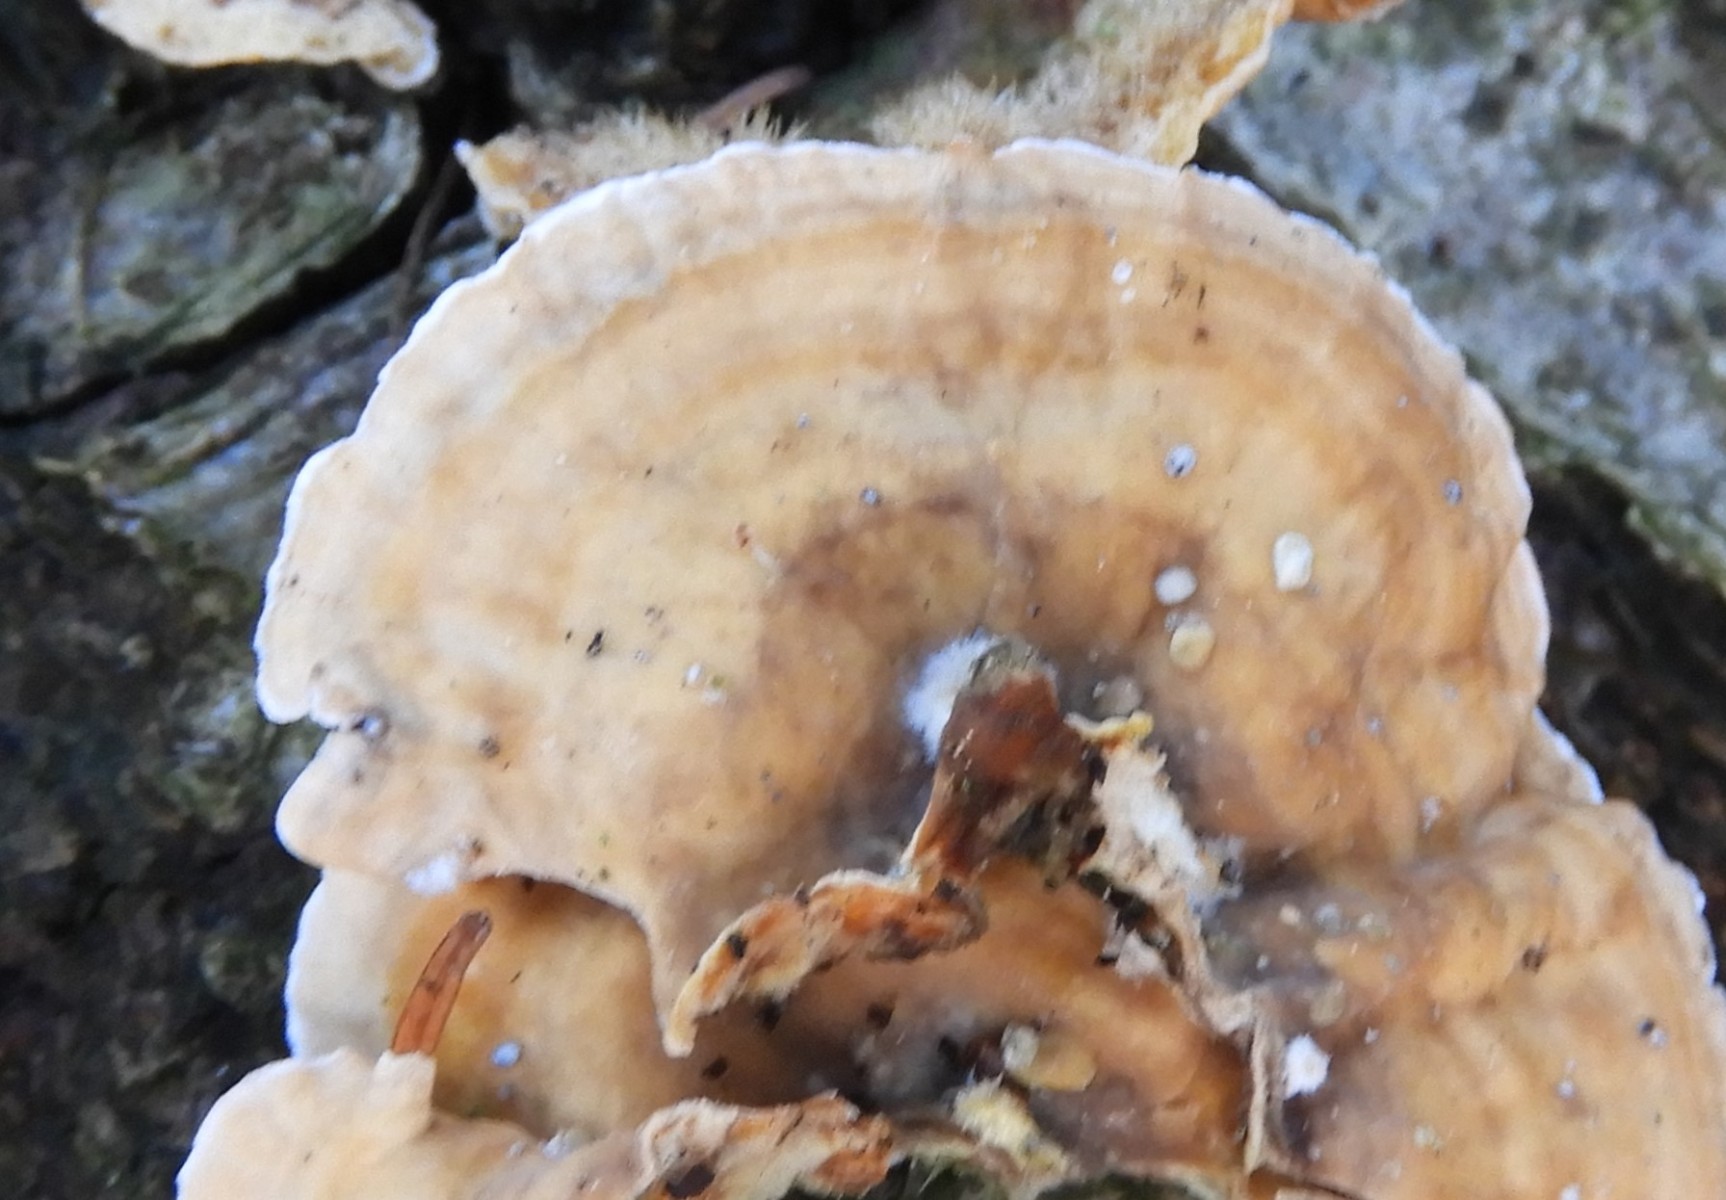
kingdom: Fungi
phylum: Basidiomycota
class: Agaricomycetes
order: Russulales
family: Stereaceae
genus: Stereum
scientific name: Stereum hirsutum
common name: håret lædersvamp
